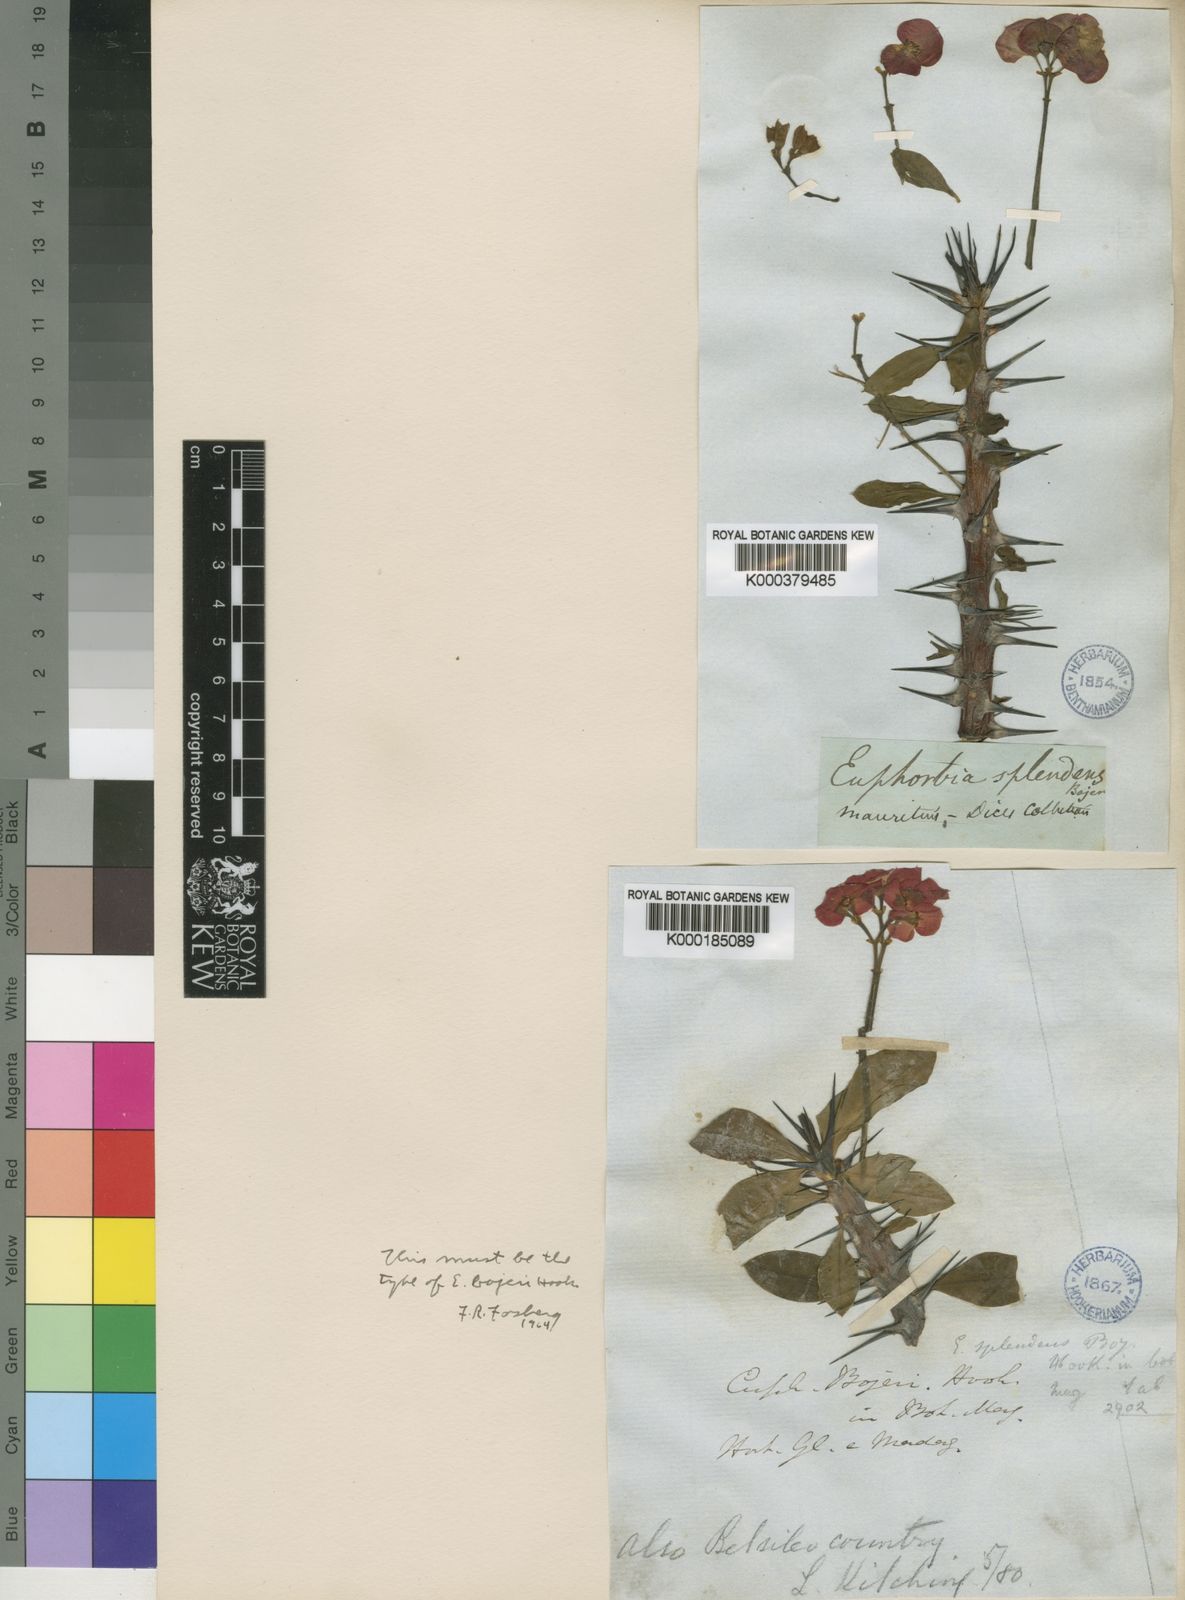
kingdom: Plantae
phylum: Tracheophyta
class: Magnoliopsida
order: Malpighiales
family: Euphorbiaceae
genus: Euphorbia
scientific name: Euphorbia splendens
